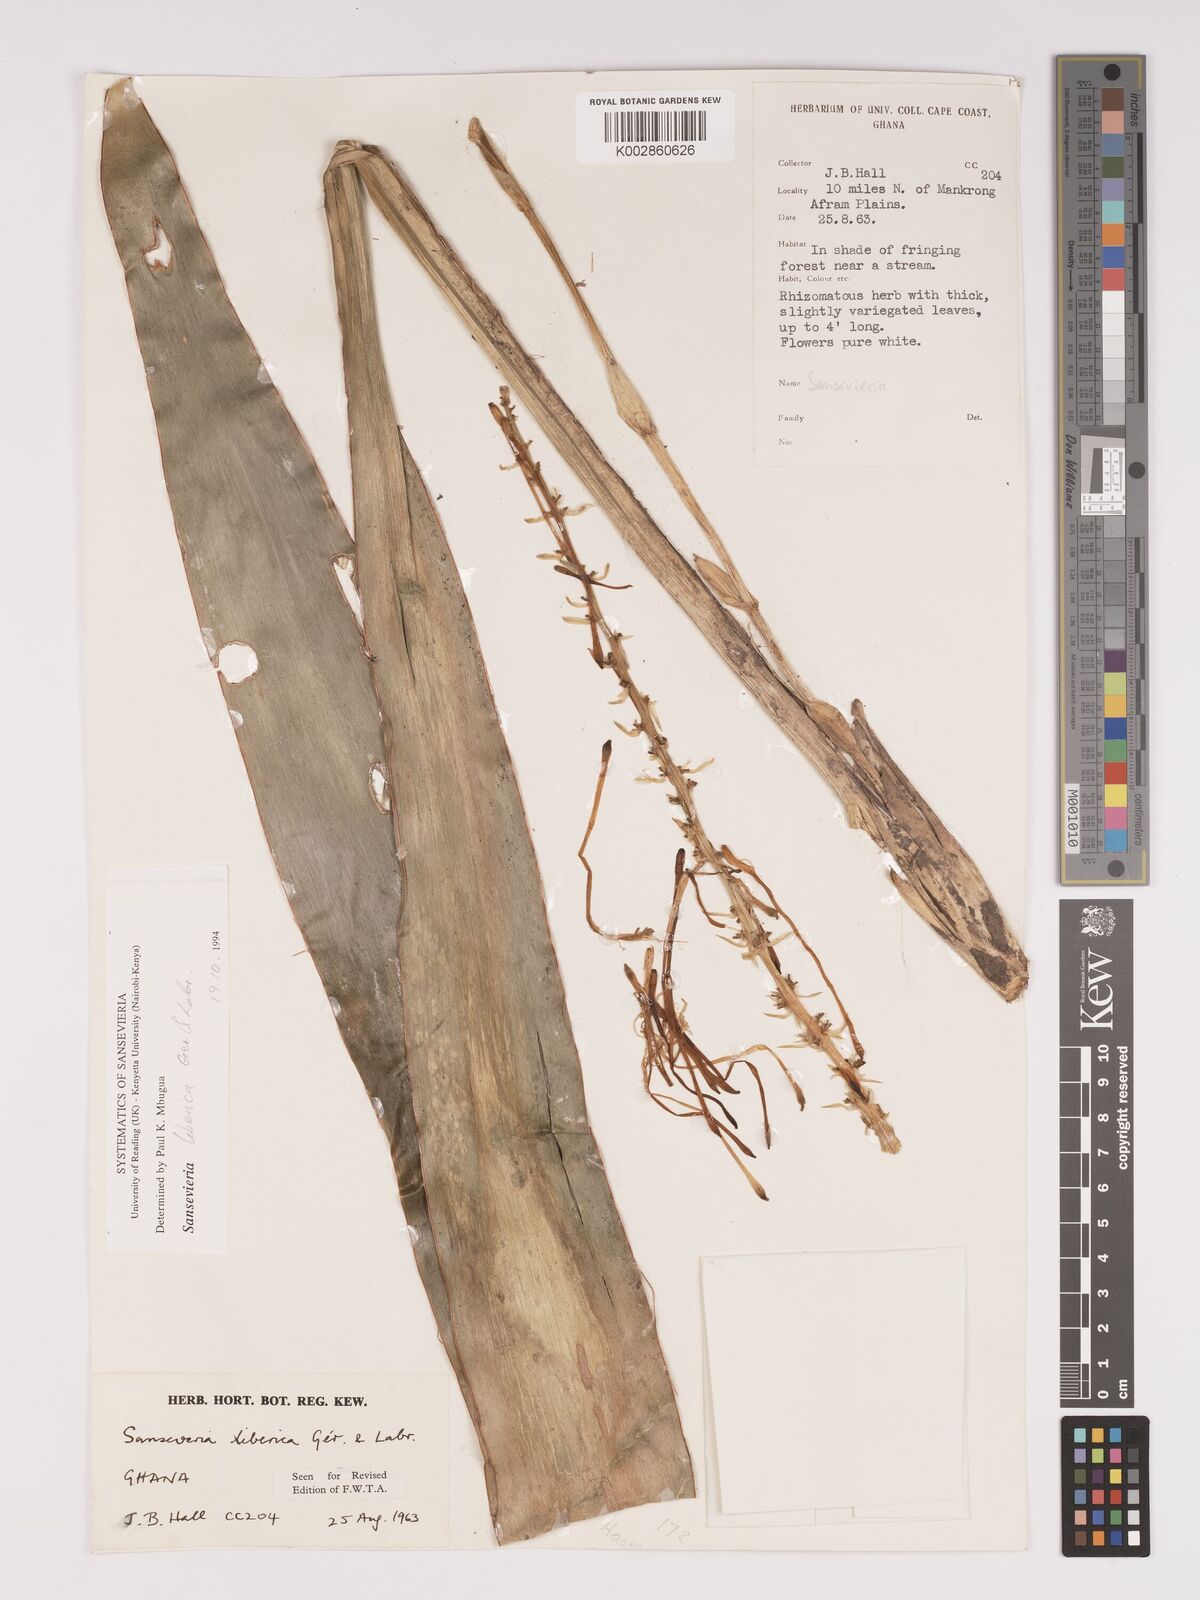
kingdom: Plantae
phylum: Tracheophyta
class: Liliopsida
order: Asparagales
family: Asparagaceae
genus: Dracaena
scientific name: Dracaena liberica
